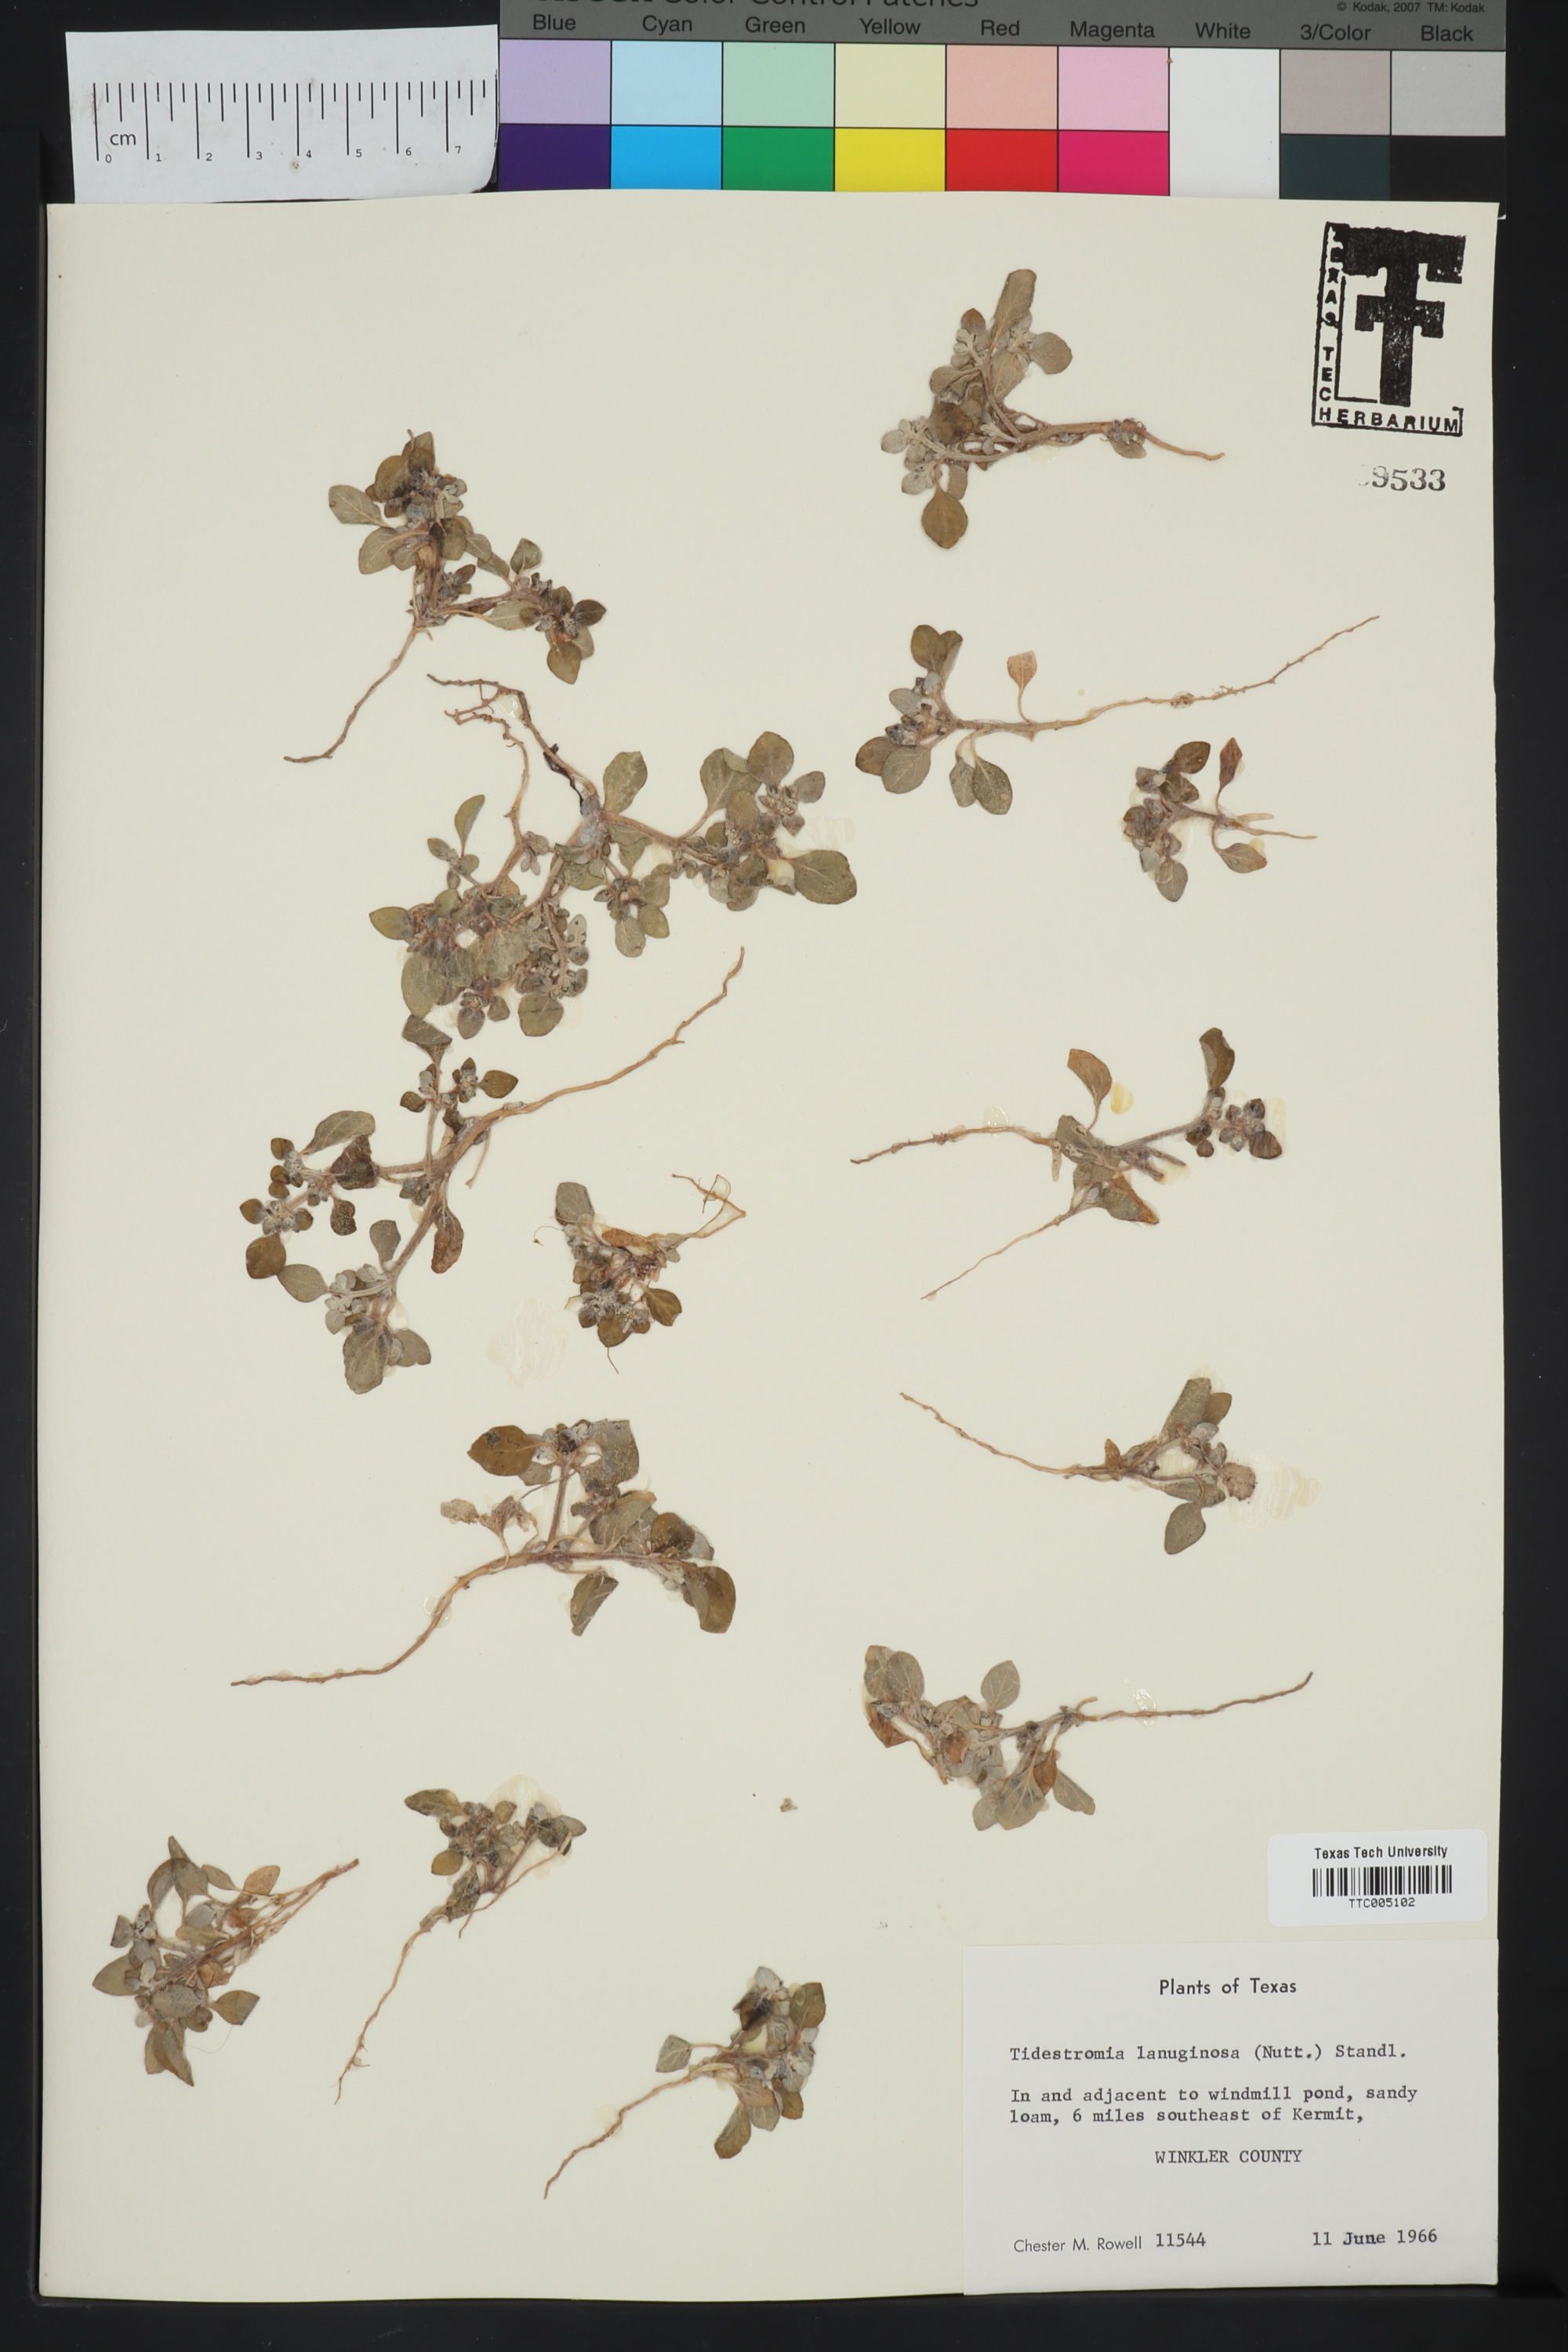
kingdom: Plantae
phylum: Tracheophyta
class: Magnoliopsida
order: Caryophyllales
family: Amaranthaceae
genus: Tidestromia
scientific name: Tidestromia lanuginosa
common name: Woolly tidestromia
